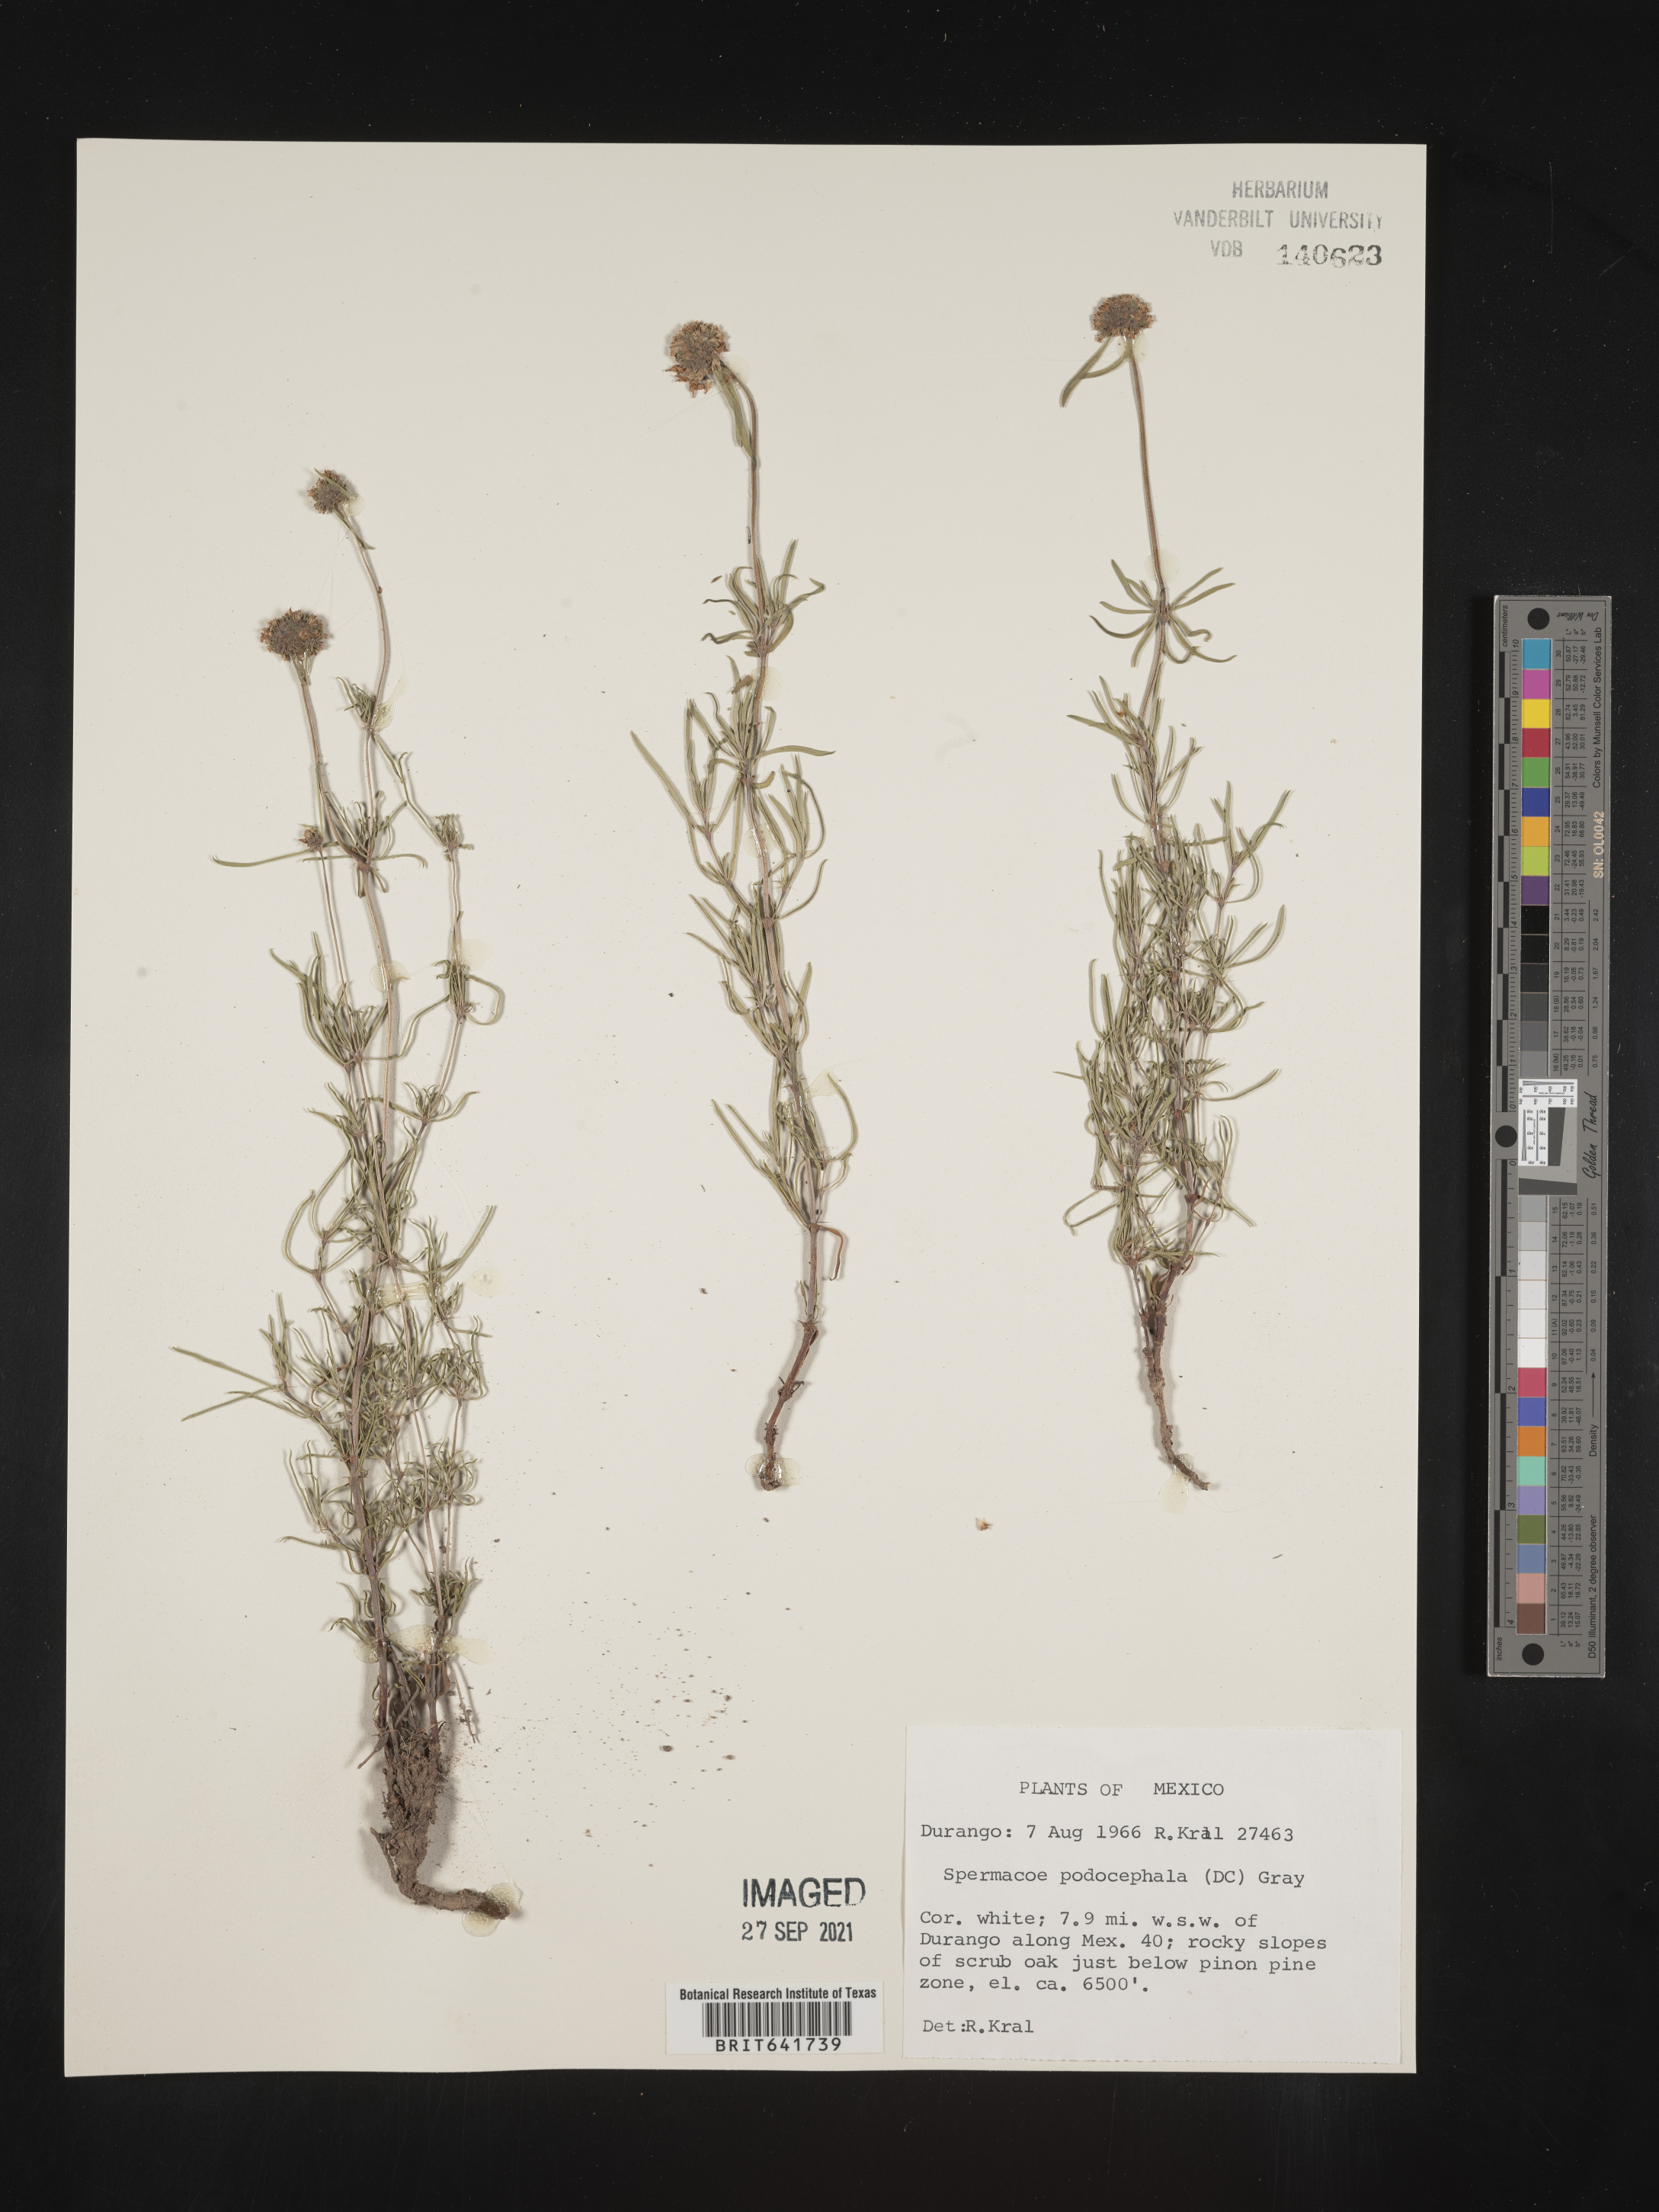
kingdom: Plantae
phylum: Tracheophyta
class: Magnoliopsida
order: Gentianales
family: Rubiaceae
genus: Spermacoce
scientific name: Spermacoce
